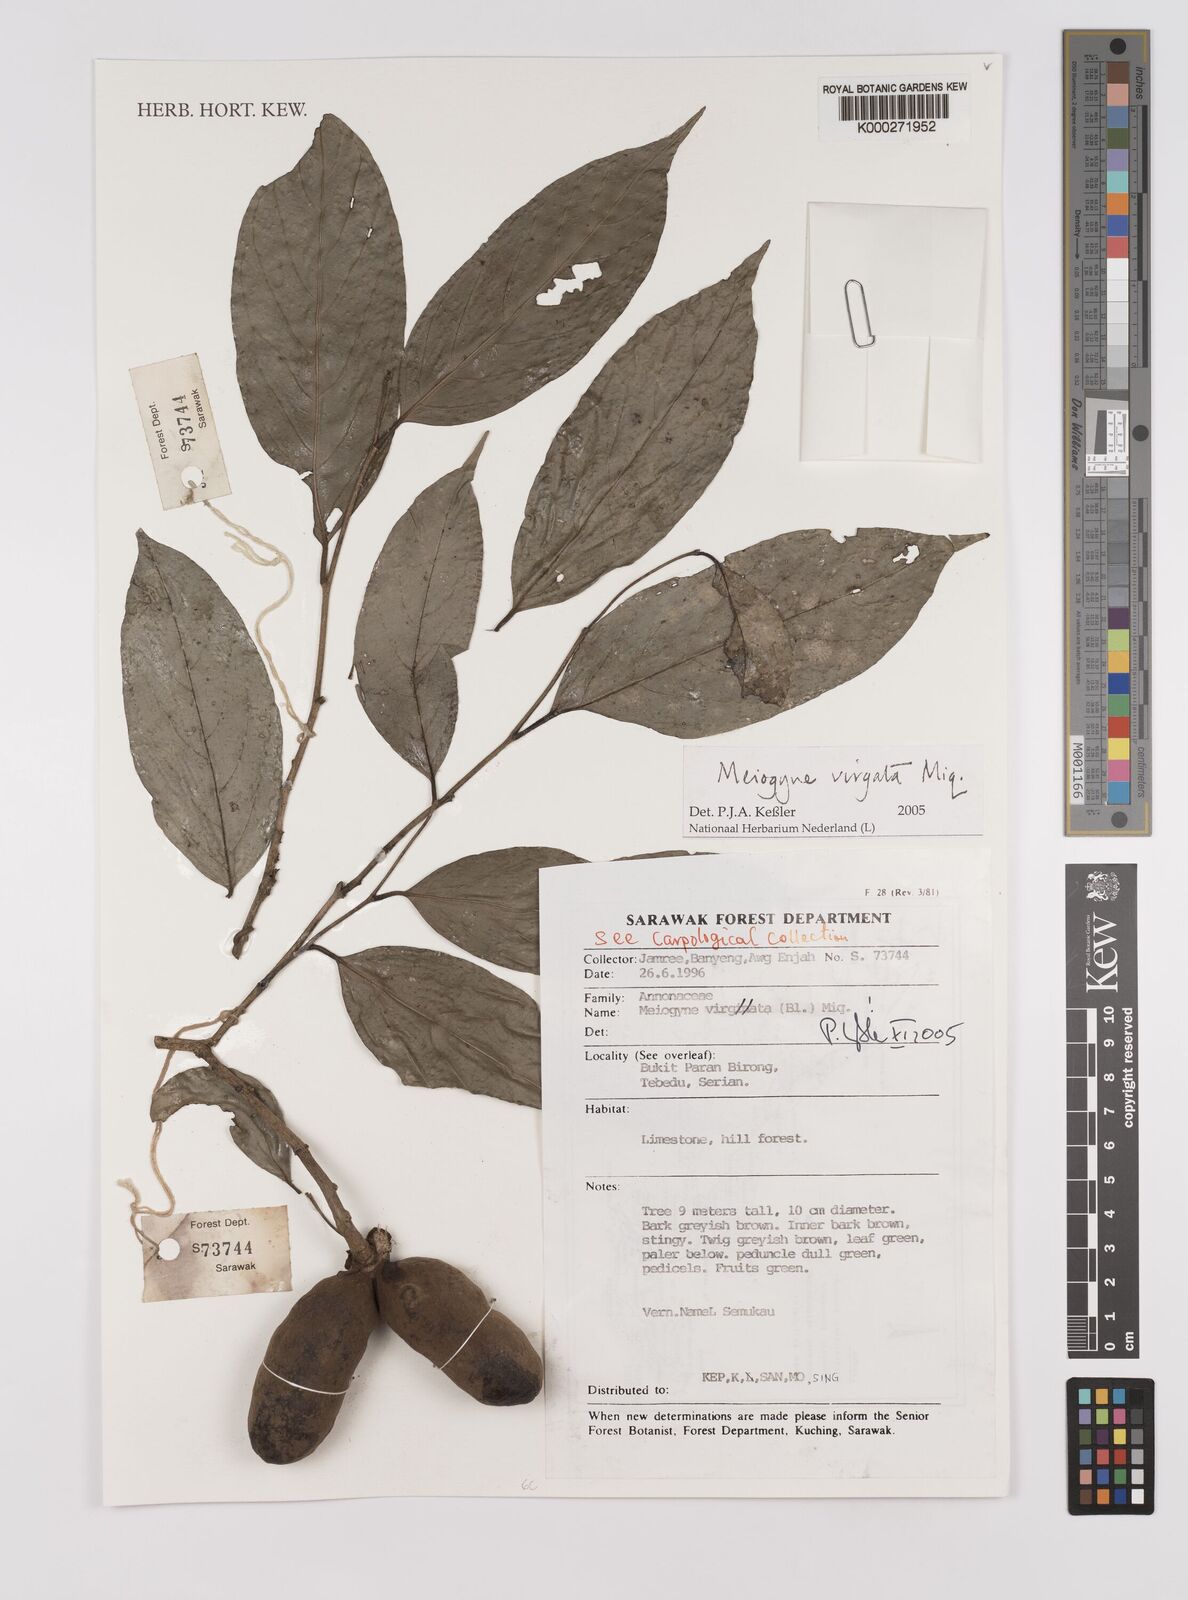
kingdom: Plantae
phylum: Tracheophyta
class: Magnoliopsida
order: Magnoliales
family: Annonaceae
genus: Meiogyne
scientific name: Meiogyne virgata
